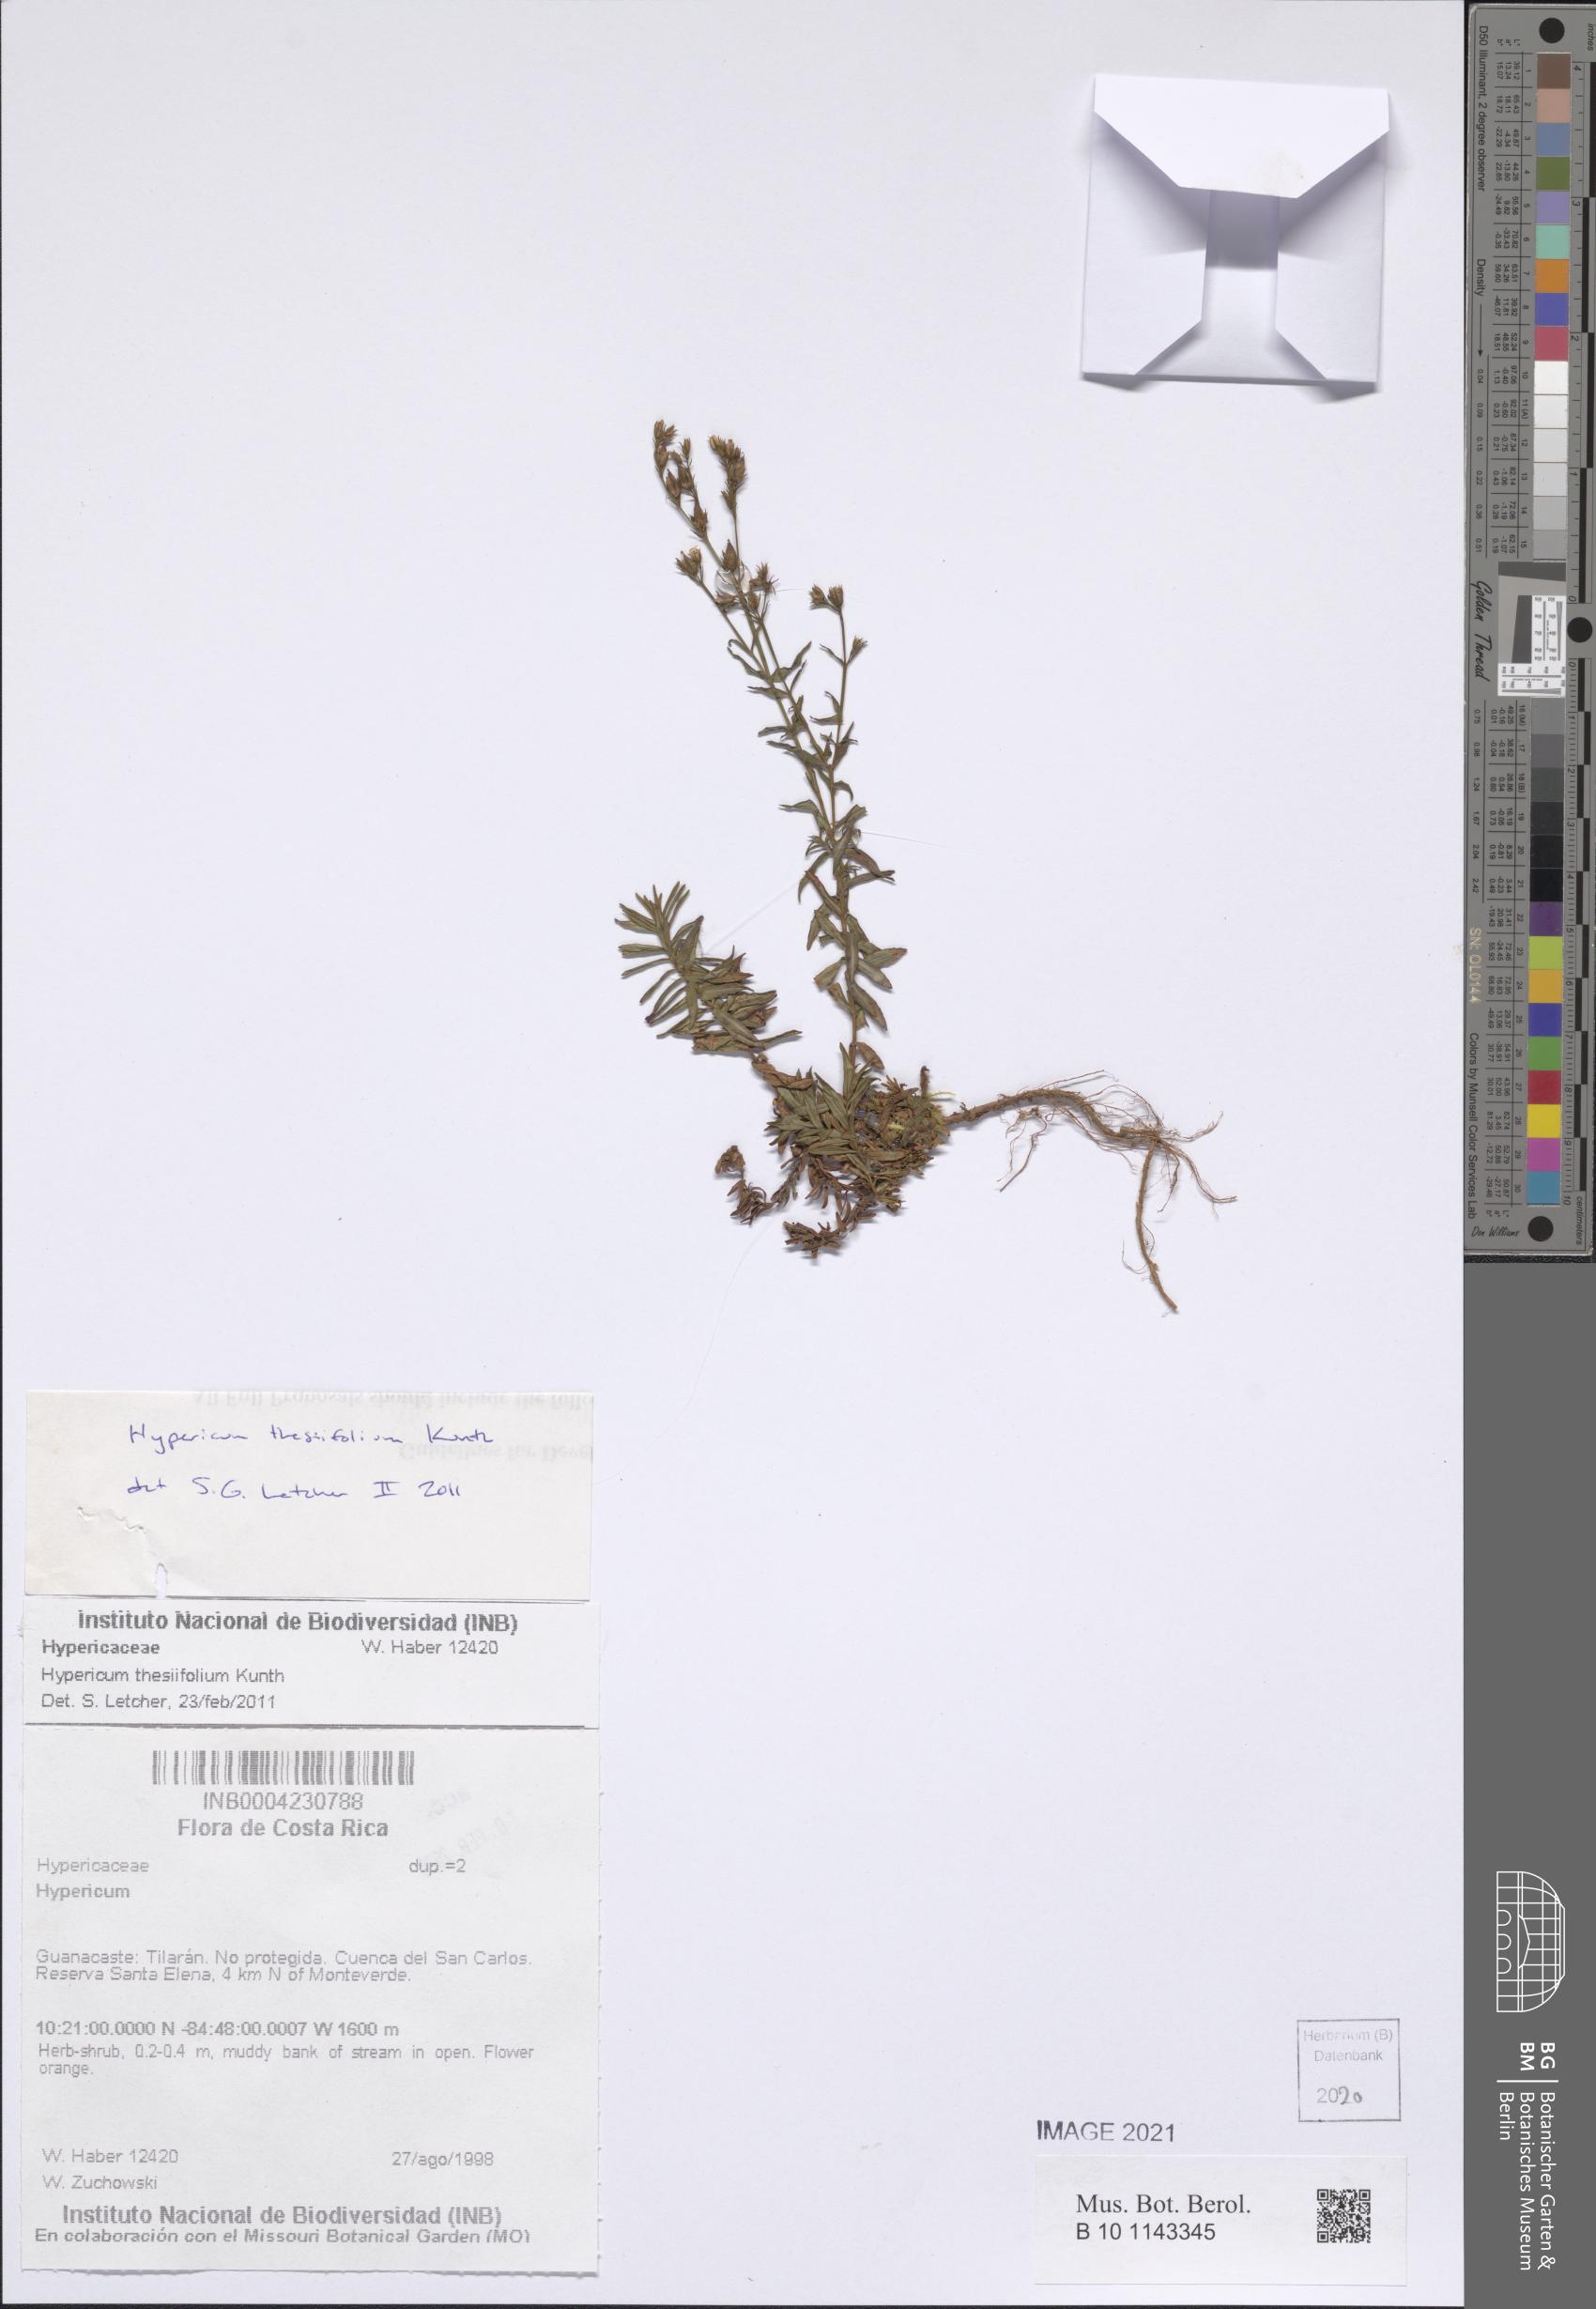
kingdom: Plantae
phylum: Tracheophyta
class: Magnoliopsida
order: Malpighiales
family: Hypericaceae
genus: Hypericum
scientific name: Hypericum thesiifolium
